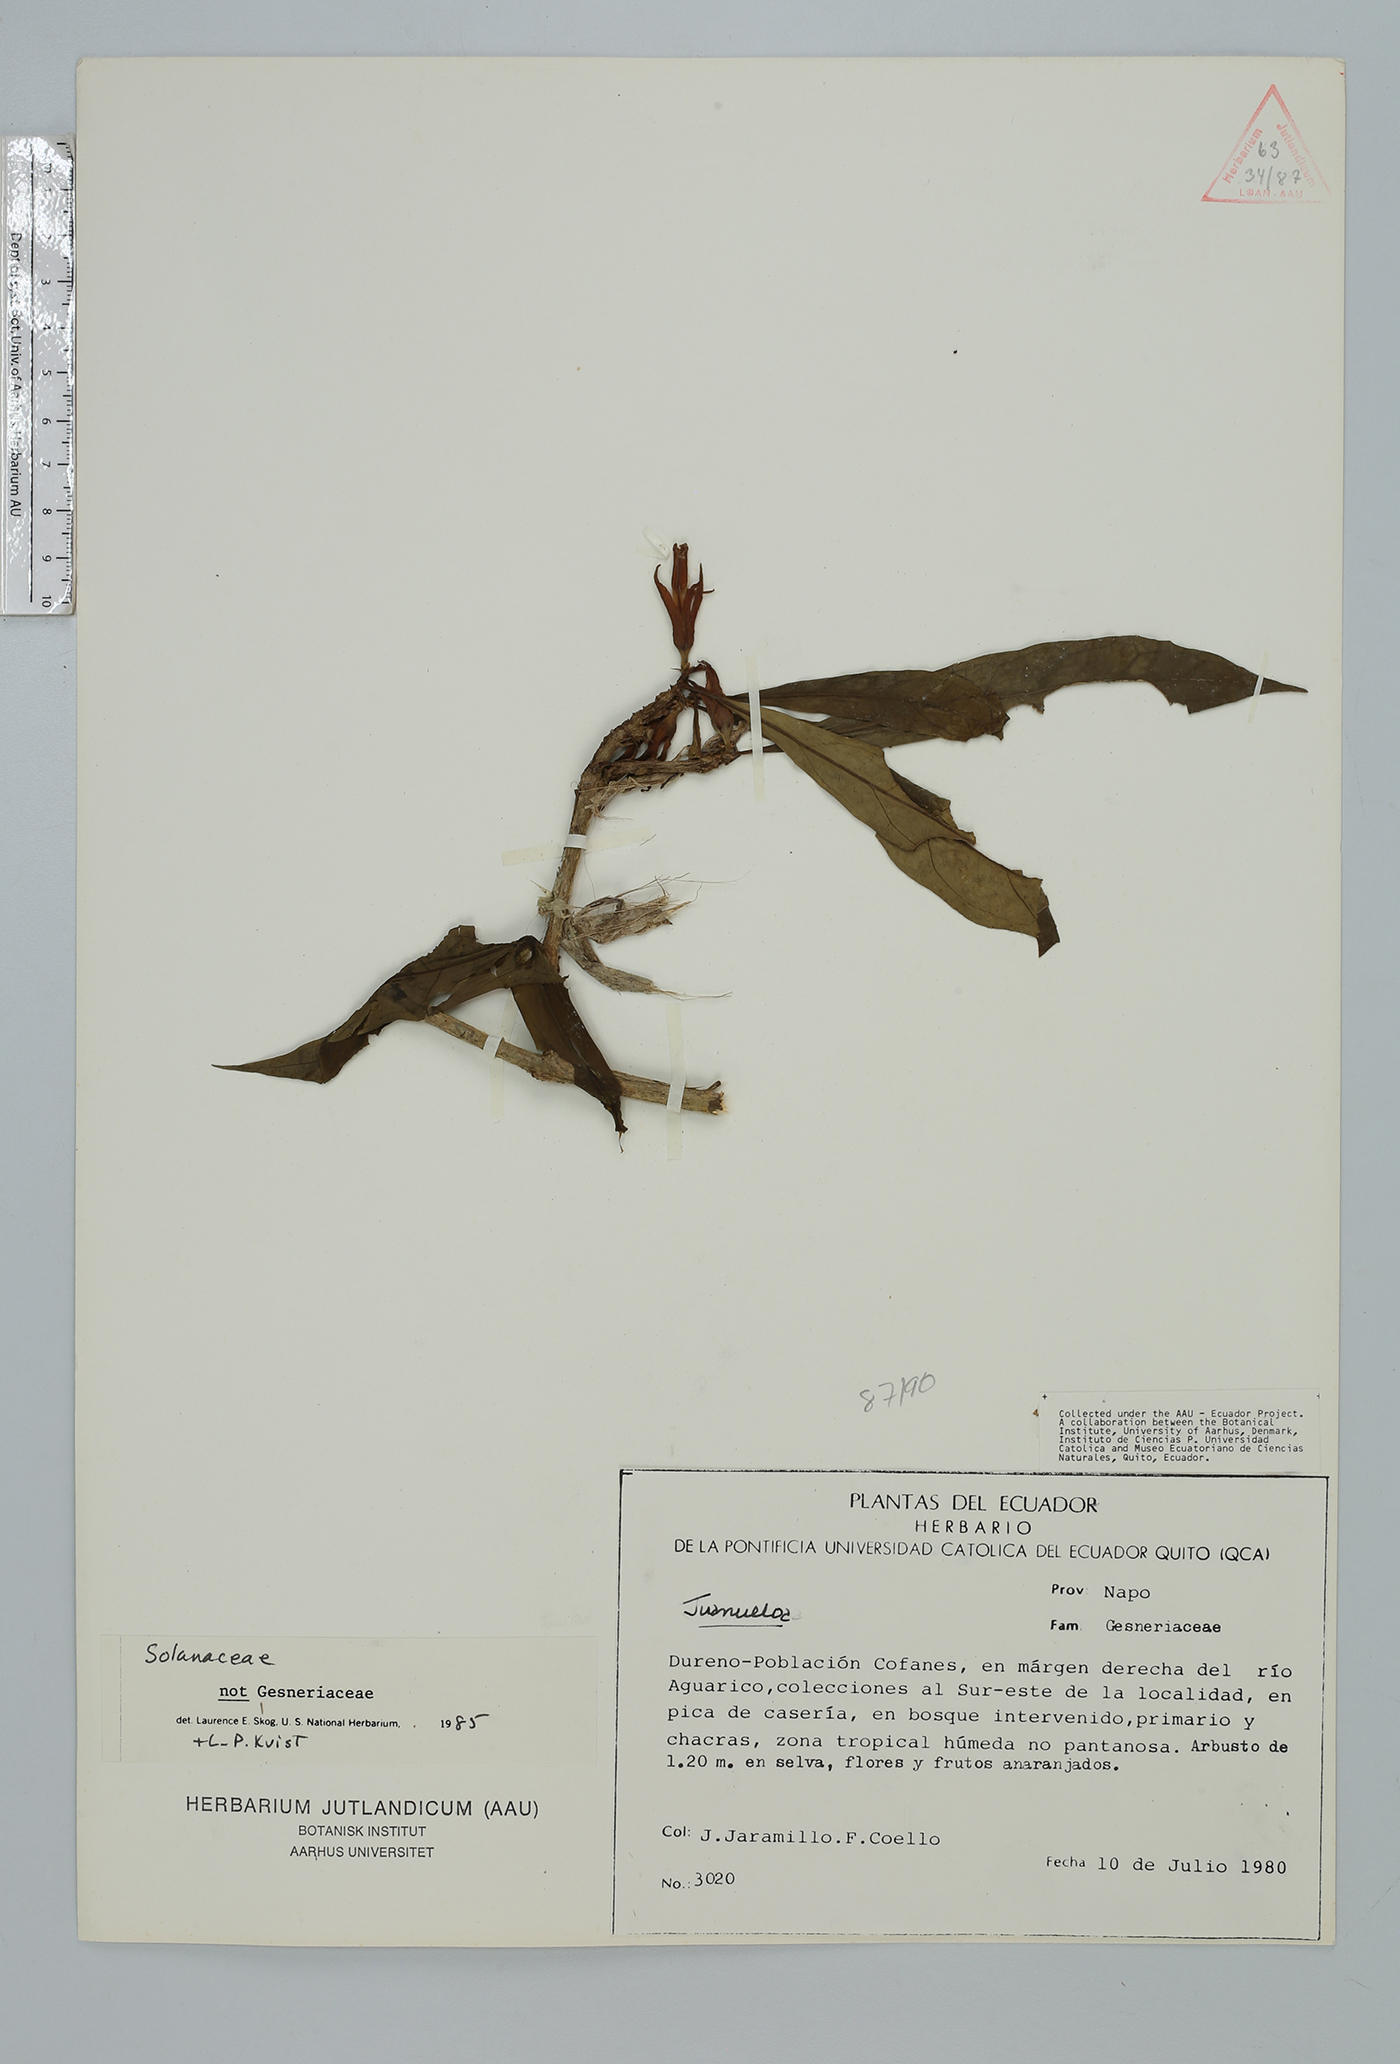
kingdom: Plantae
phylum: Tracheophyta
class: Magnoliopsida
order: Solanales
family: Solanaceae
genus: Hawkesiophyton
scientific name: Hawkesiophyton ochraceum
